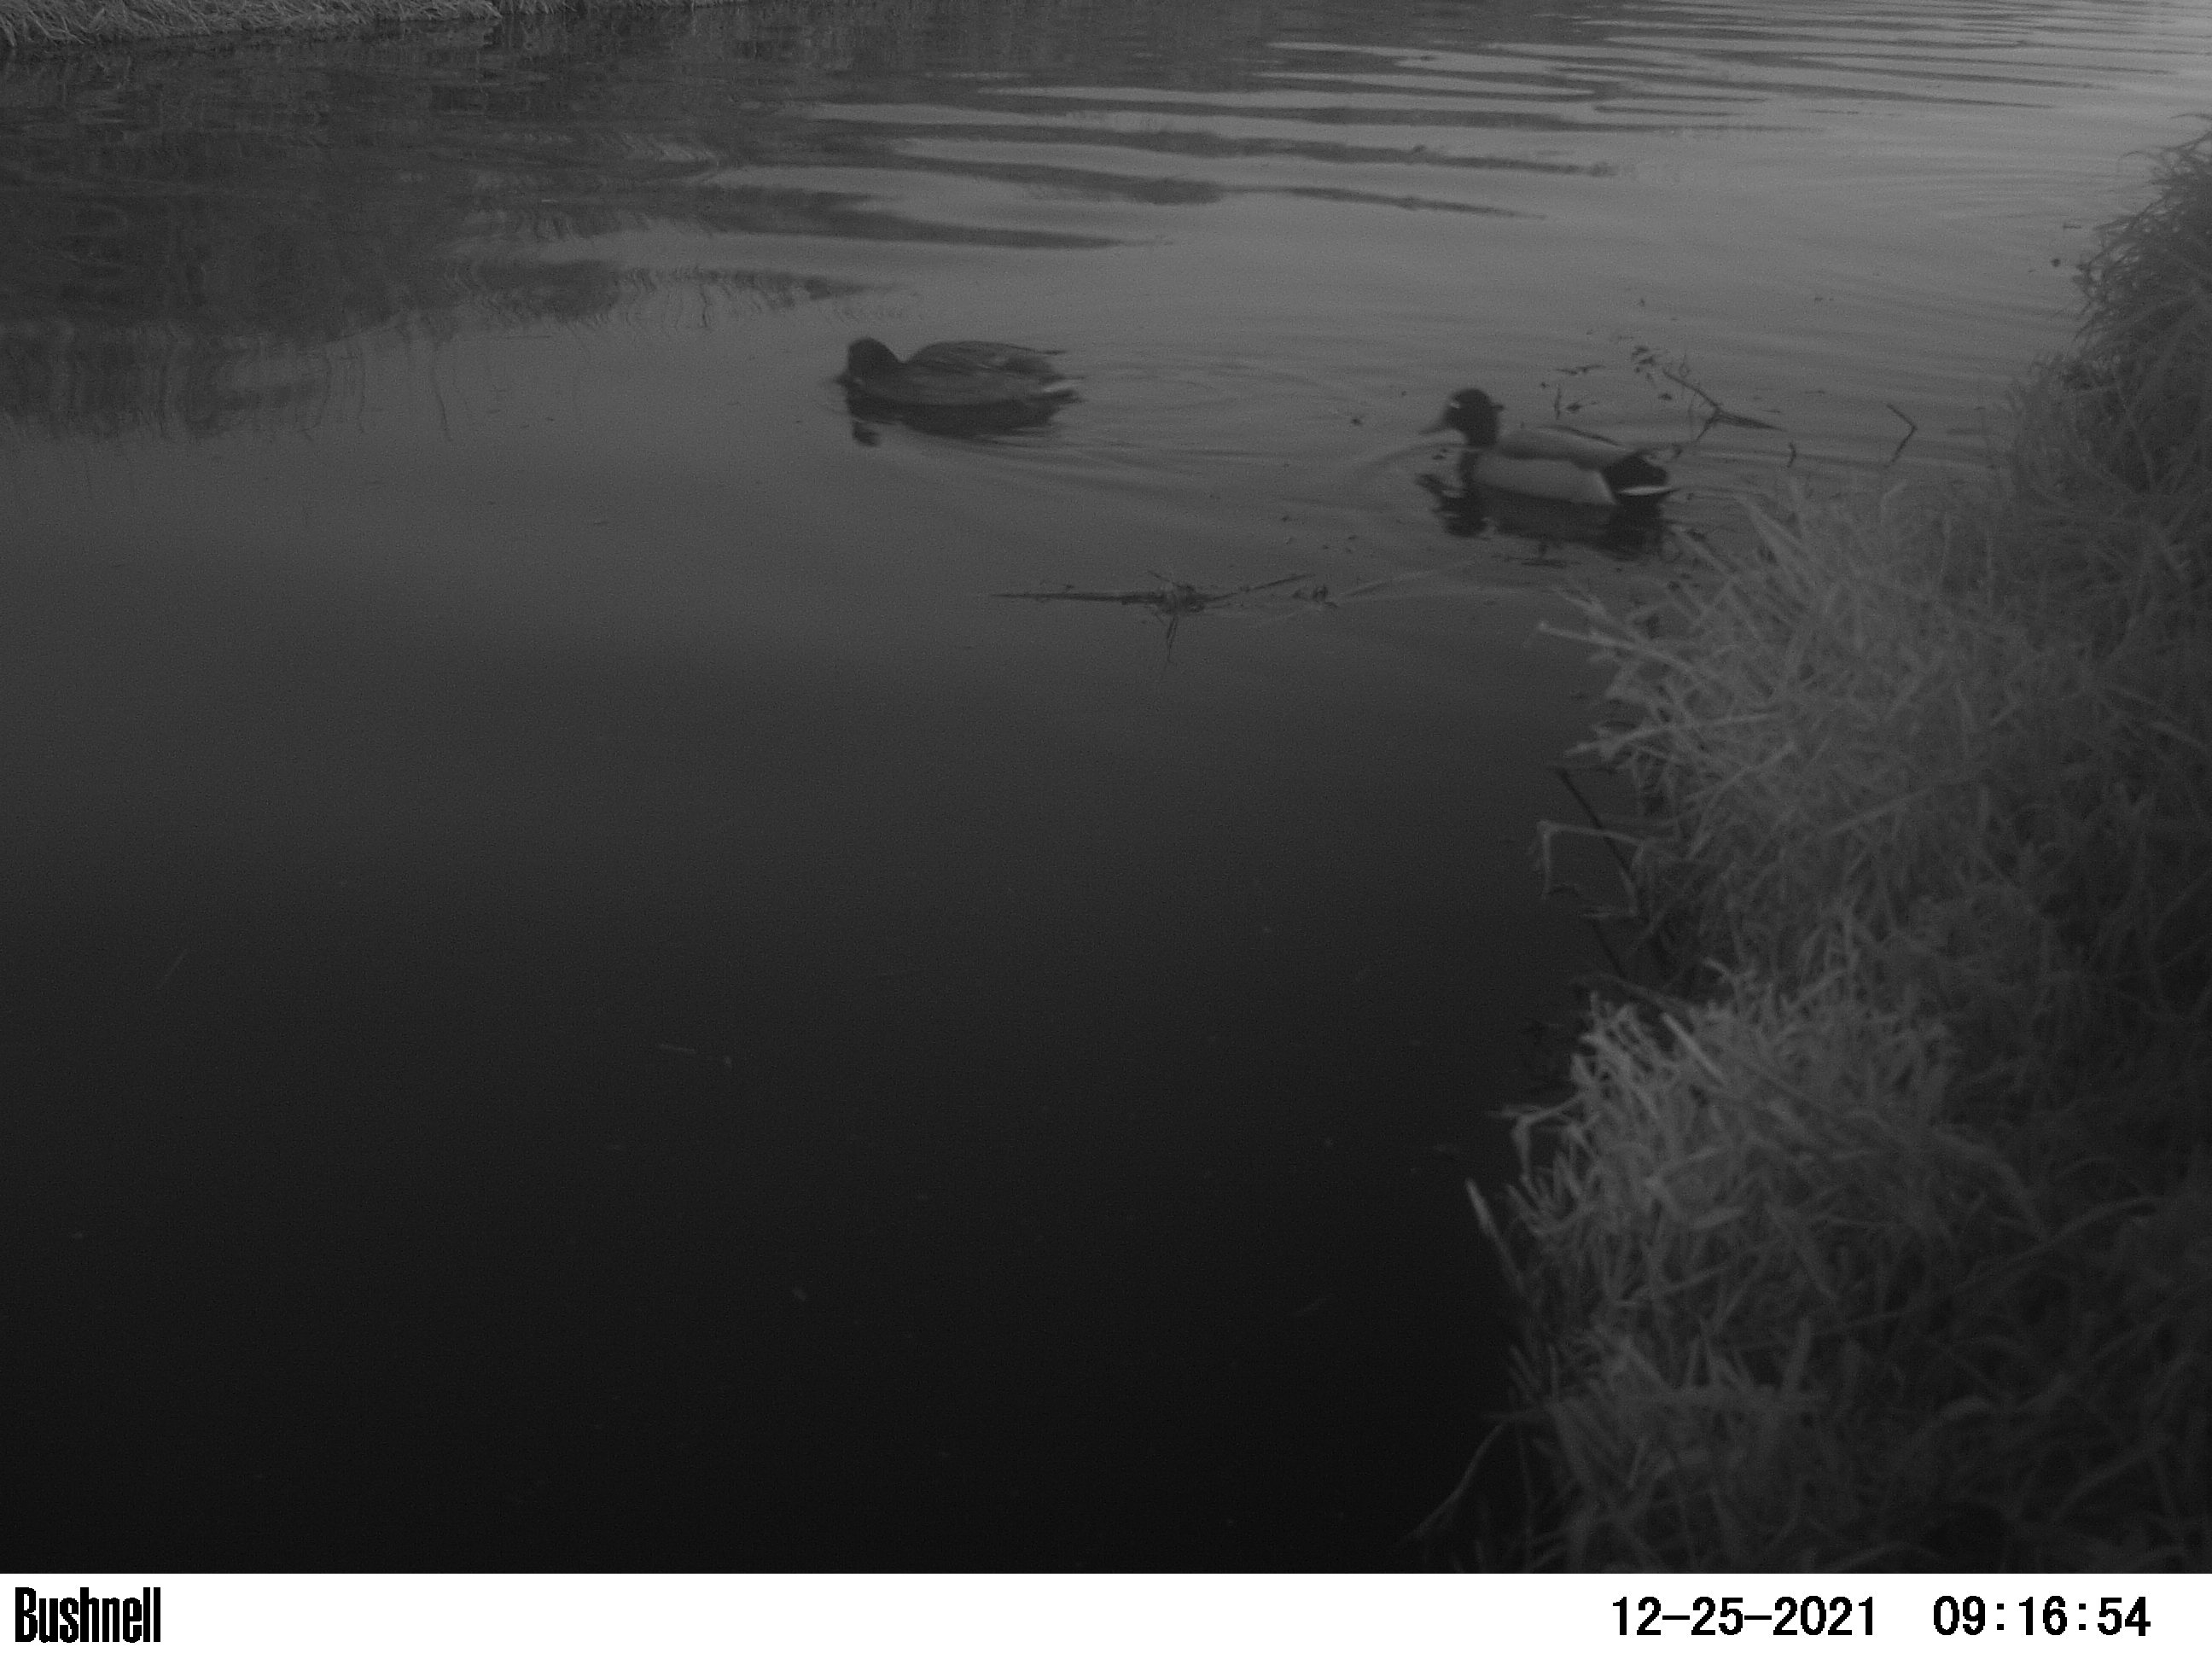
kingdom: Animalia
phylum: Chordata
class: Aves
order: Anseriformes
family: Anatidae
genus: Anas
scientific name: Anas
